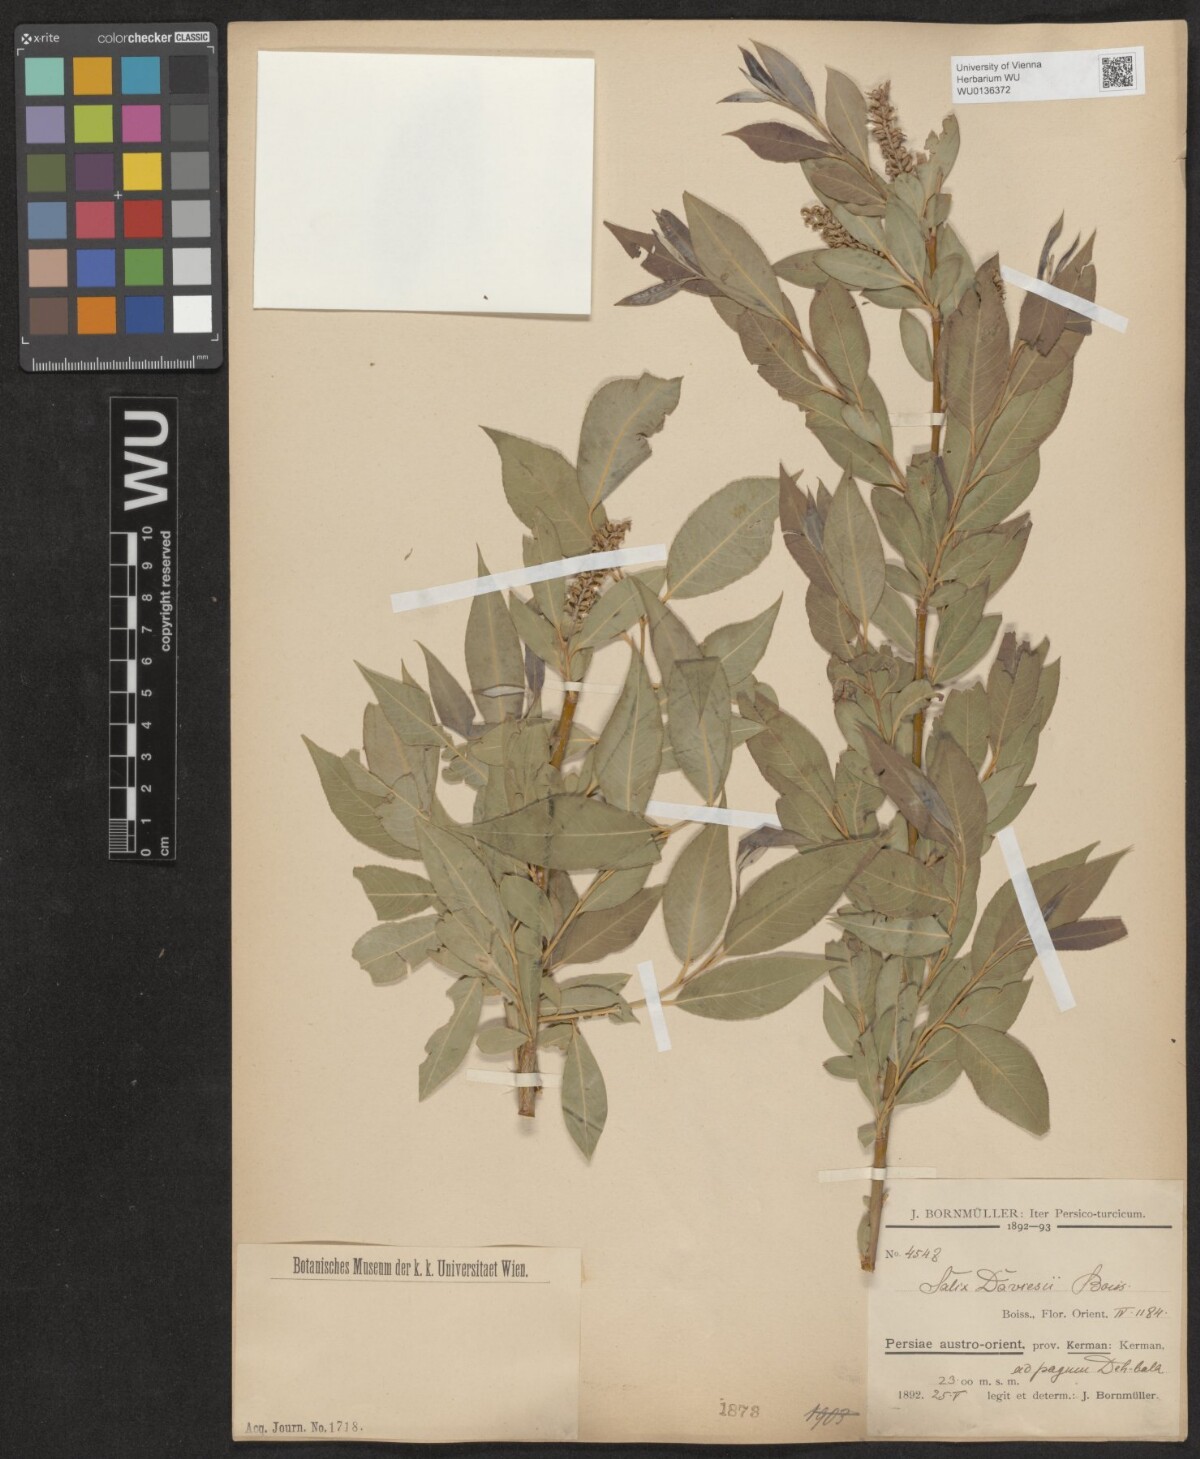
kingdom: Plantae
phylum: Tracheophyta
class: Magnoliopsida
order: Malpighiales
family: Salicaceae
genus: Salix
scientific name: Salix acmophylla
